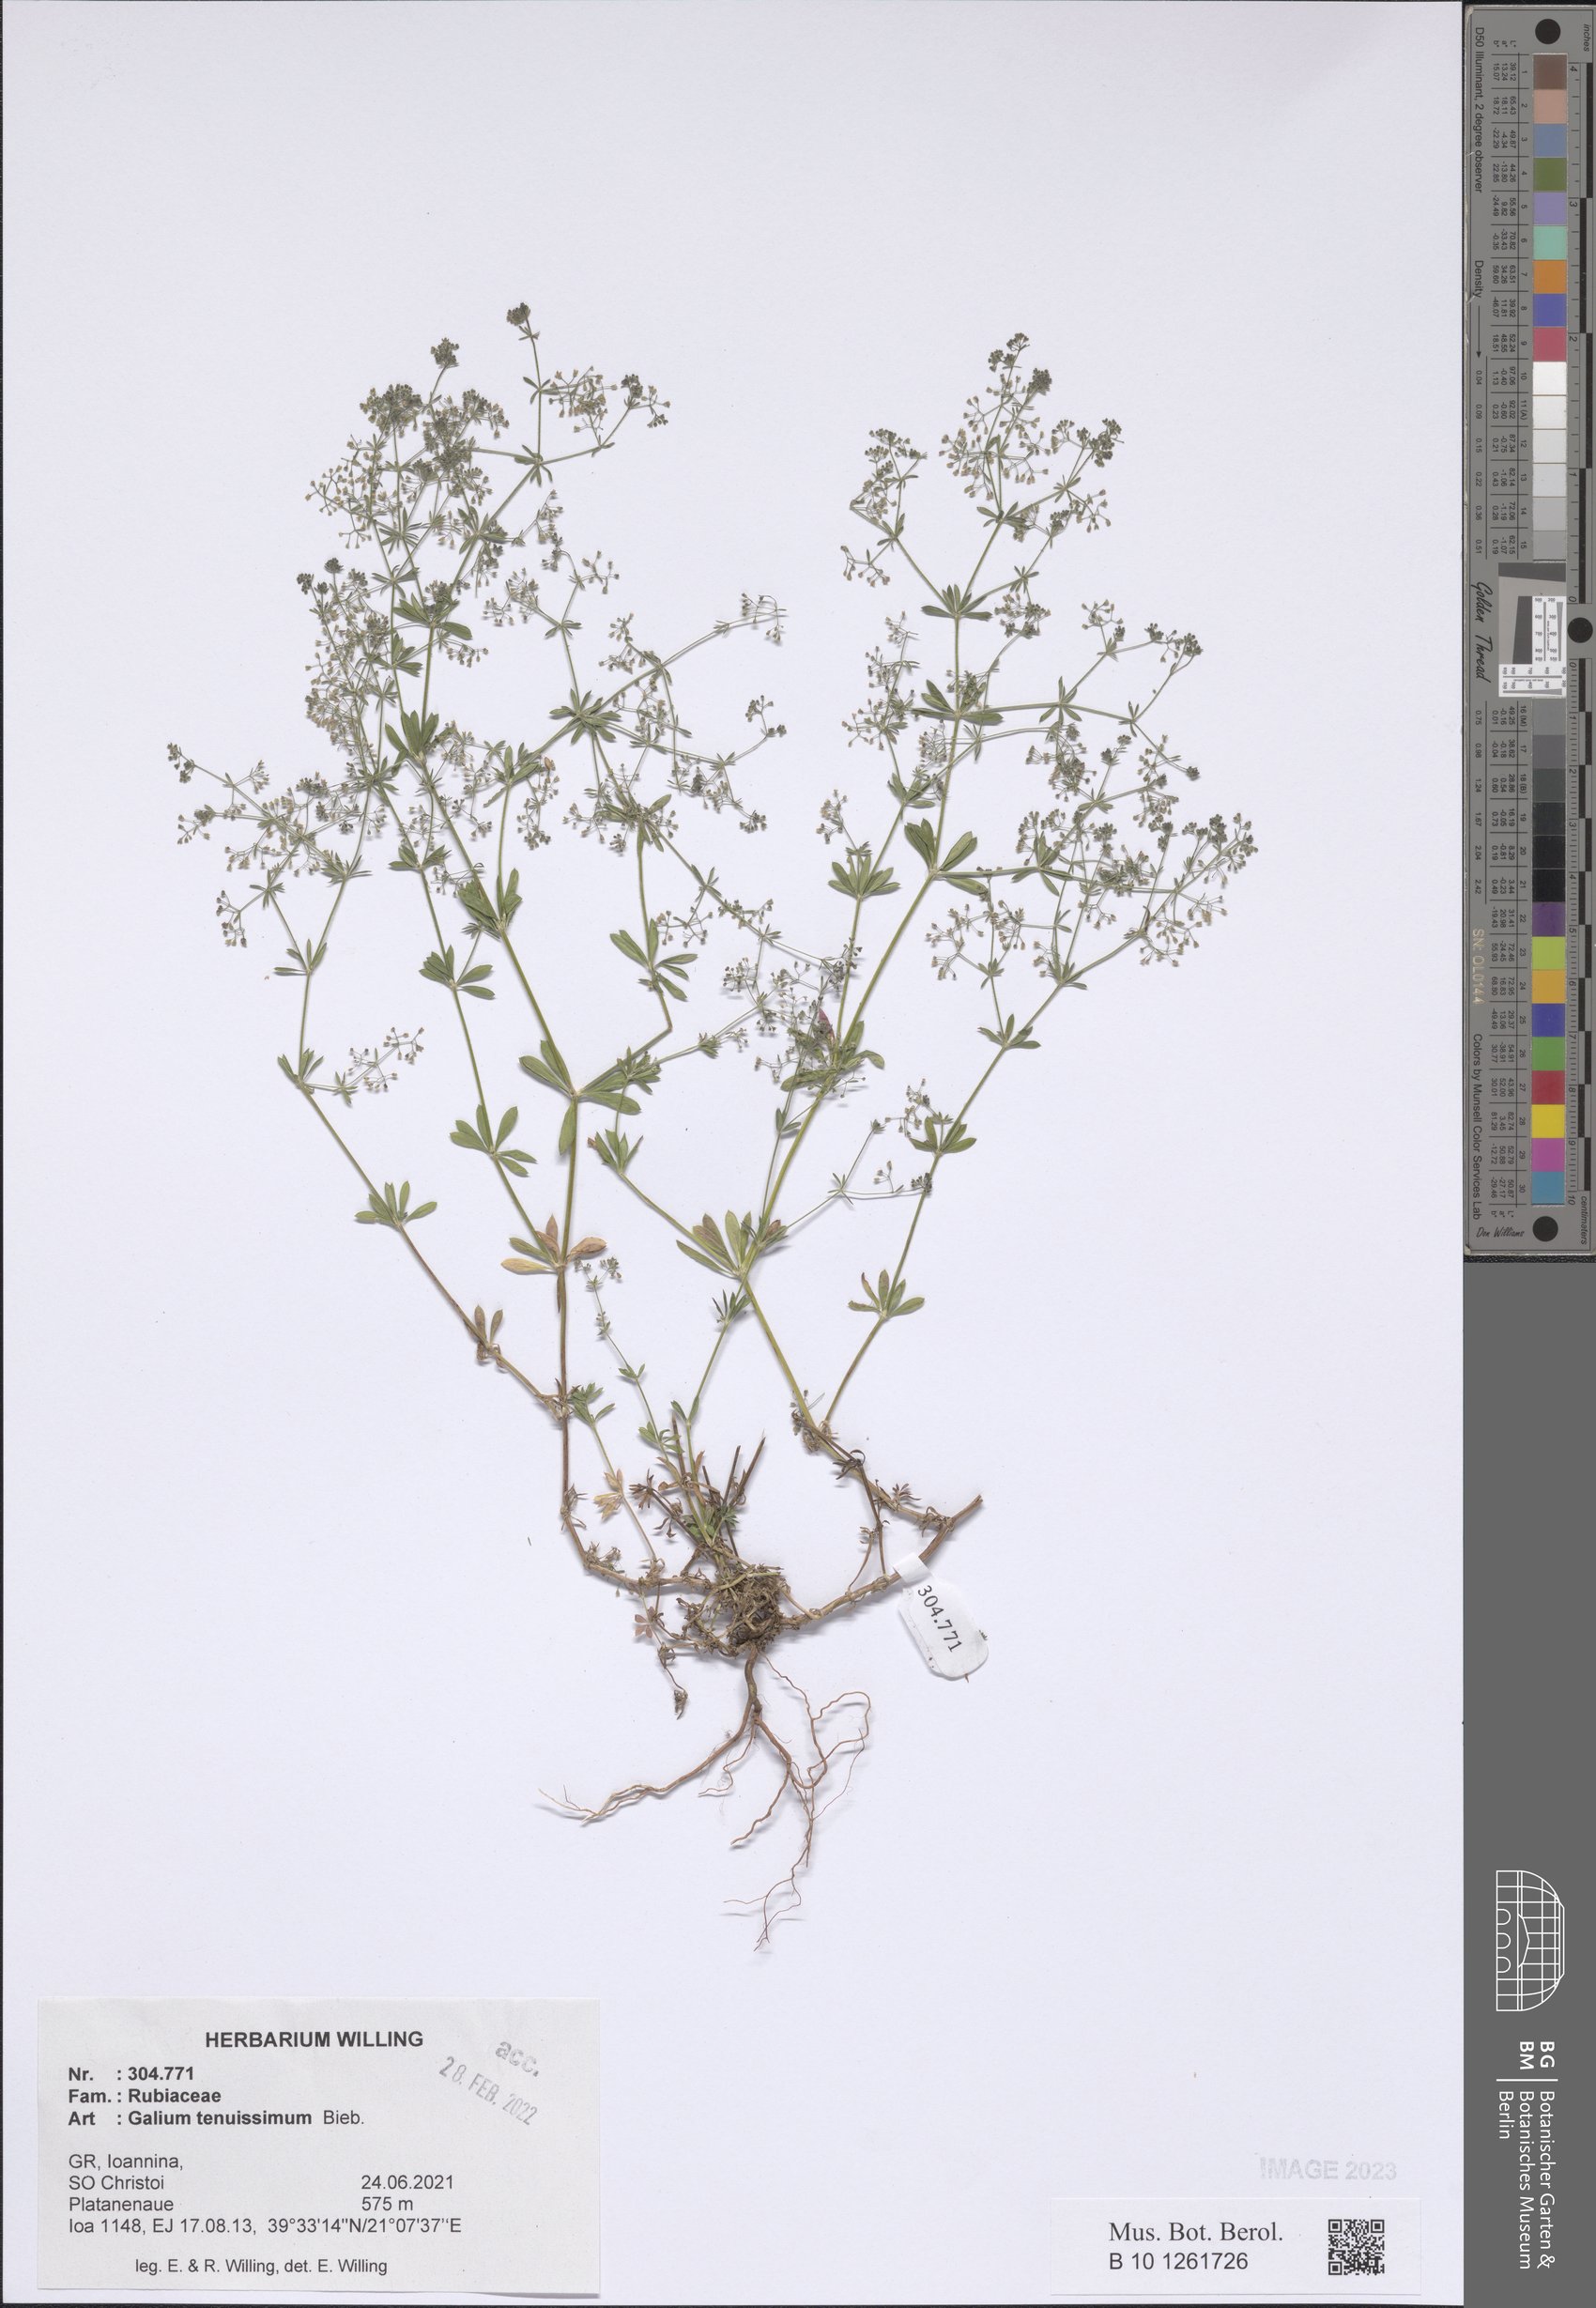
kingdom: Plantae
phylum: Tracheophyta
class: Magnoliopsida
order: Gentianales
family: Rubiaceae
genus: Galium
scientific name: Galium tenuissimum
